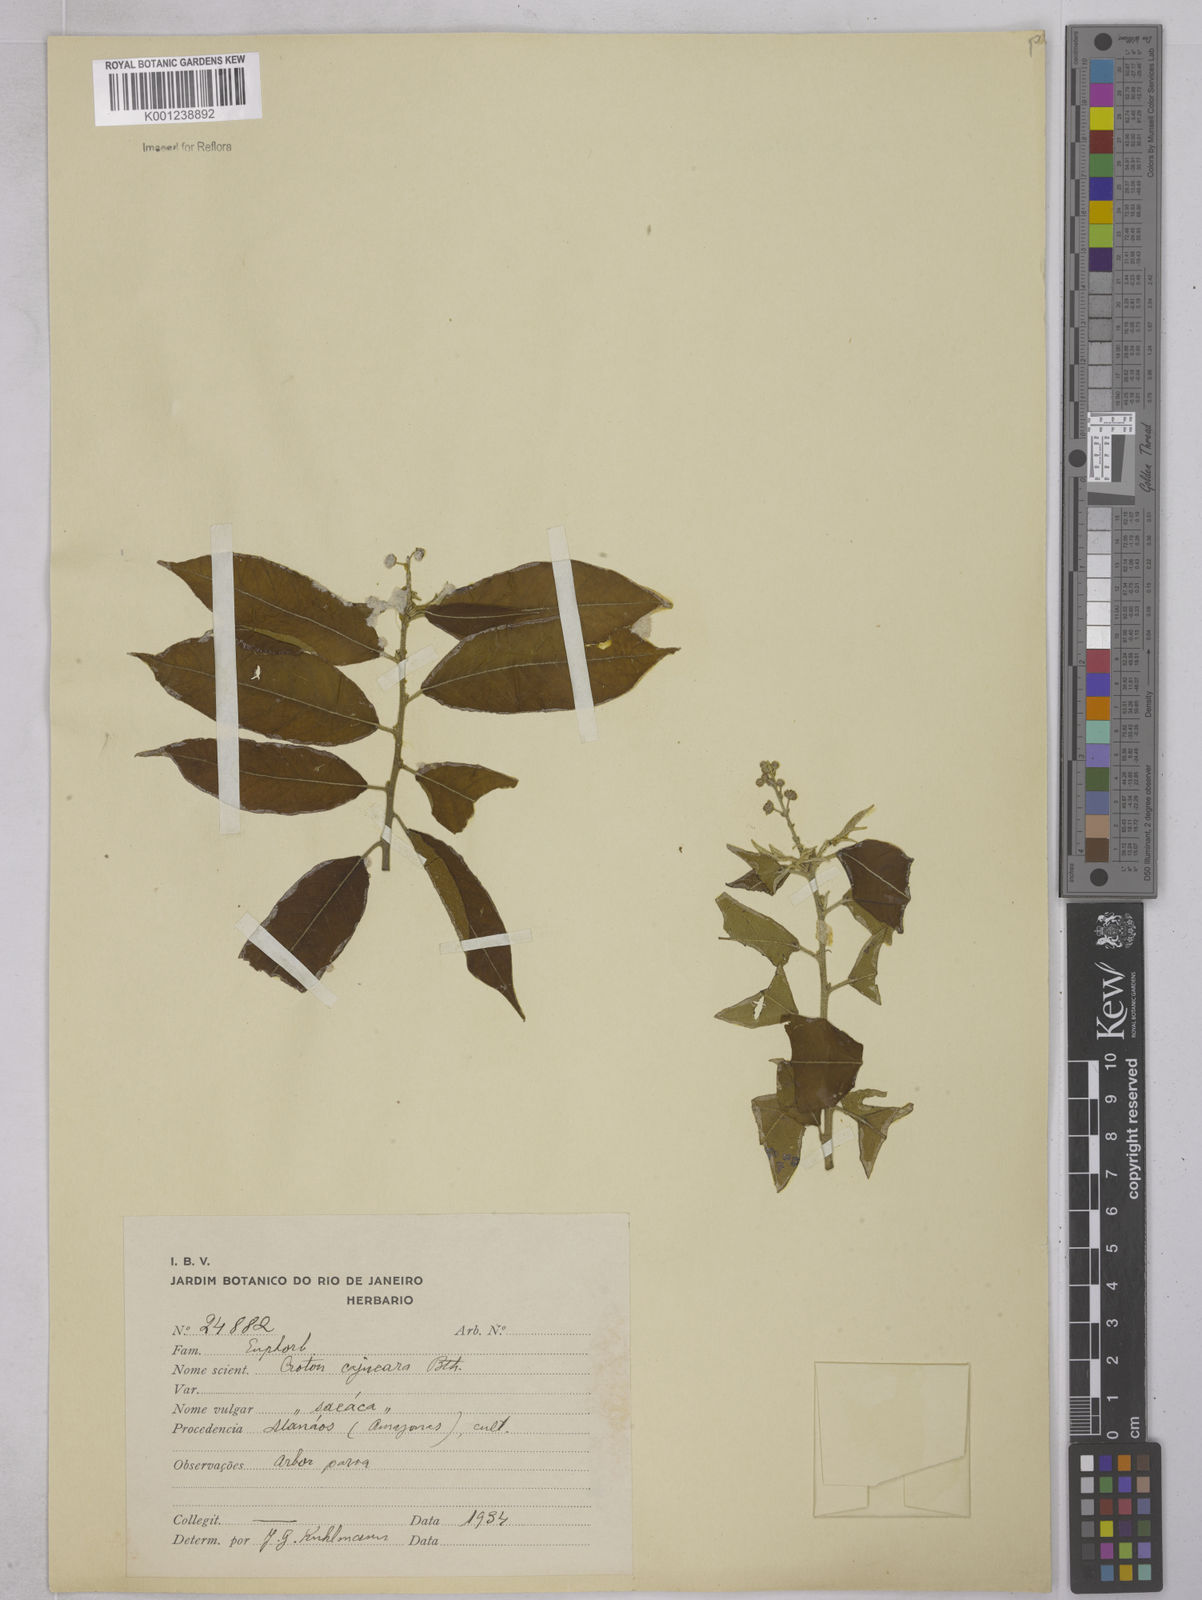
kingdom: Plantae
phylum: Tracheophyta
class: Magnoliopsida
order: Malpighiales
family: Euphorbiaceae
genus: Croton
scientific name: Croton cajucara
